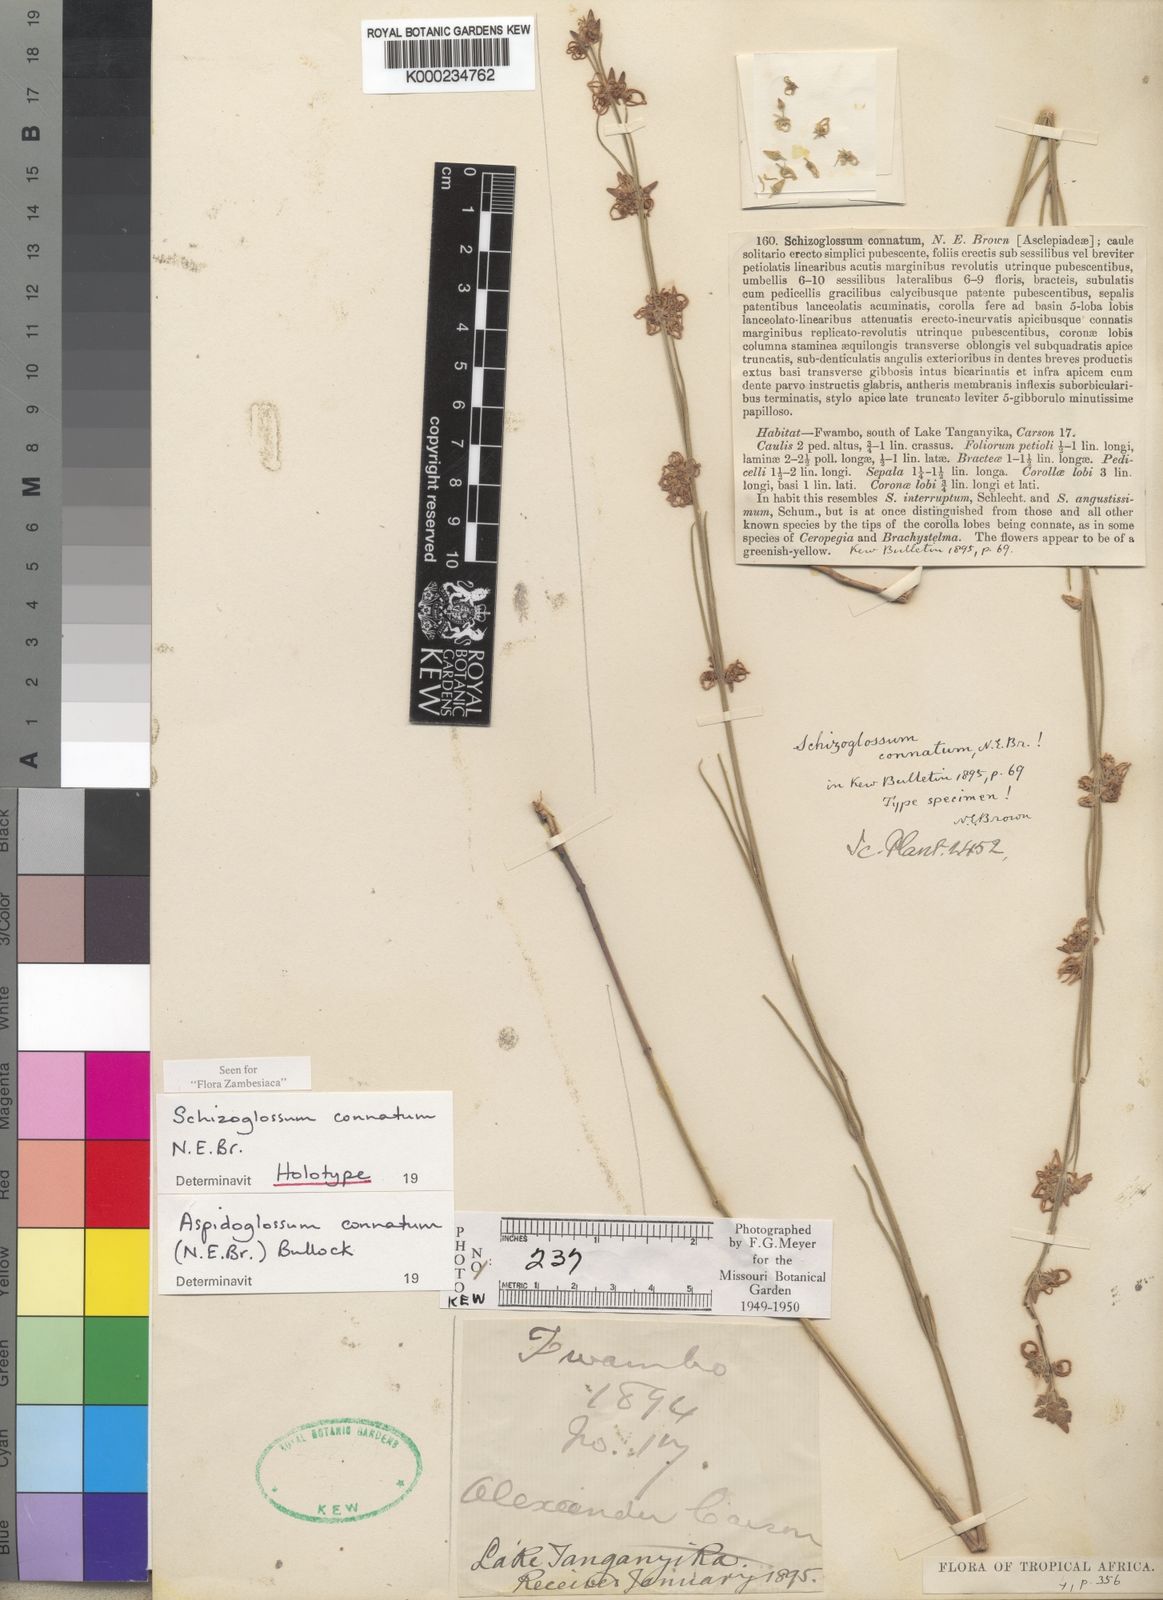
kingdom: Plantae
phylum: Tracheophyta
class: Magnoliopsida
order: Gentianales
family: Apocynaceae
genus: Aspidoglossum
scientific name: Aspidoglossum connatum
